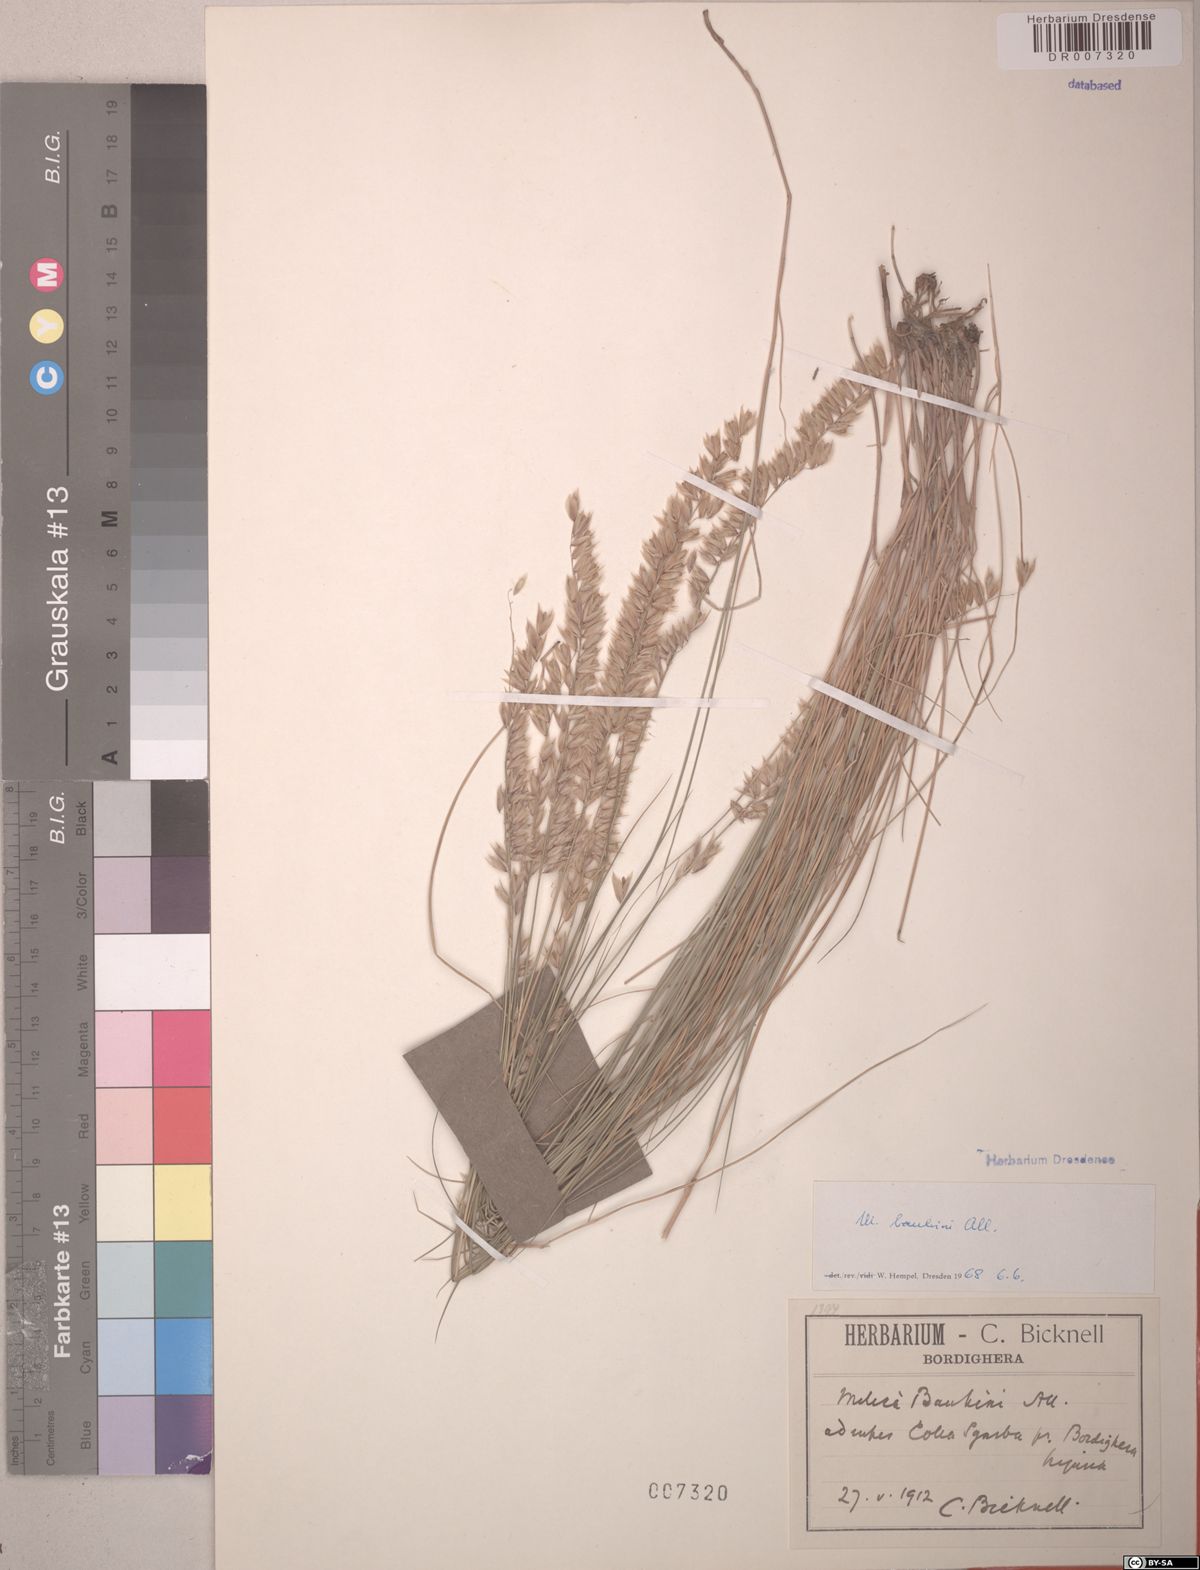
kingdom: Plantae
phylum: Tracheophyta
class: Liliopsida
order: Poales
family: Poaceae
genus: Melica
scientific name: Melica amethystina
